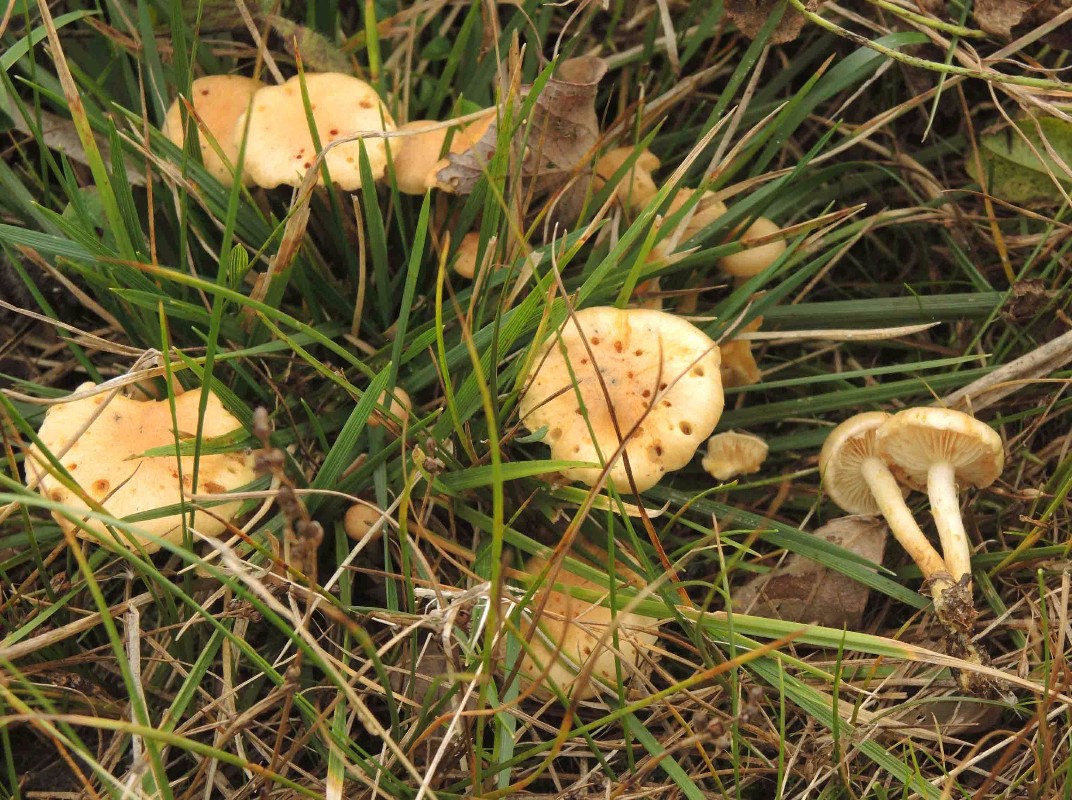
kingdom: Fungi
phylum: Basidiomycota
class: Agaricomycetes
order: Agaricales
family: Strophariaceae
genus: Pholiota
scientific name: Pholiota conissans
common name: pile-skælhat
